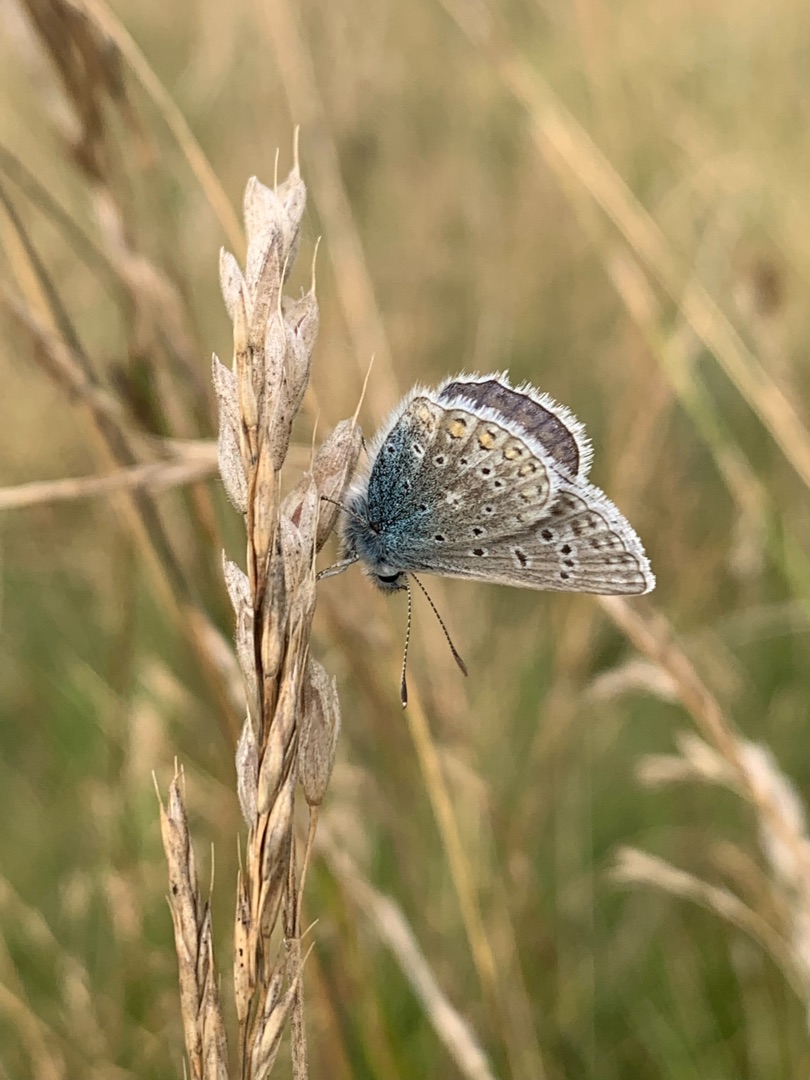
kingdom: Animalia
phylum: Arthropoda
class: Insecta
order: Lepidoptera
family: Lycaenidae
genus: Polyommatus
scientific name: Polyommatus icarus
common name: Almindelig blåfugl
